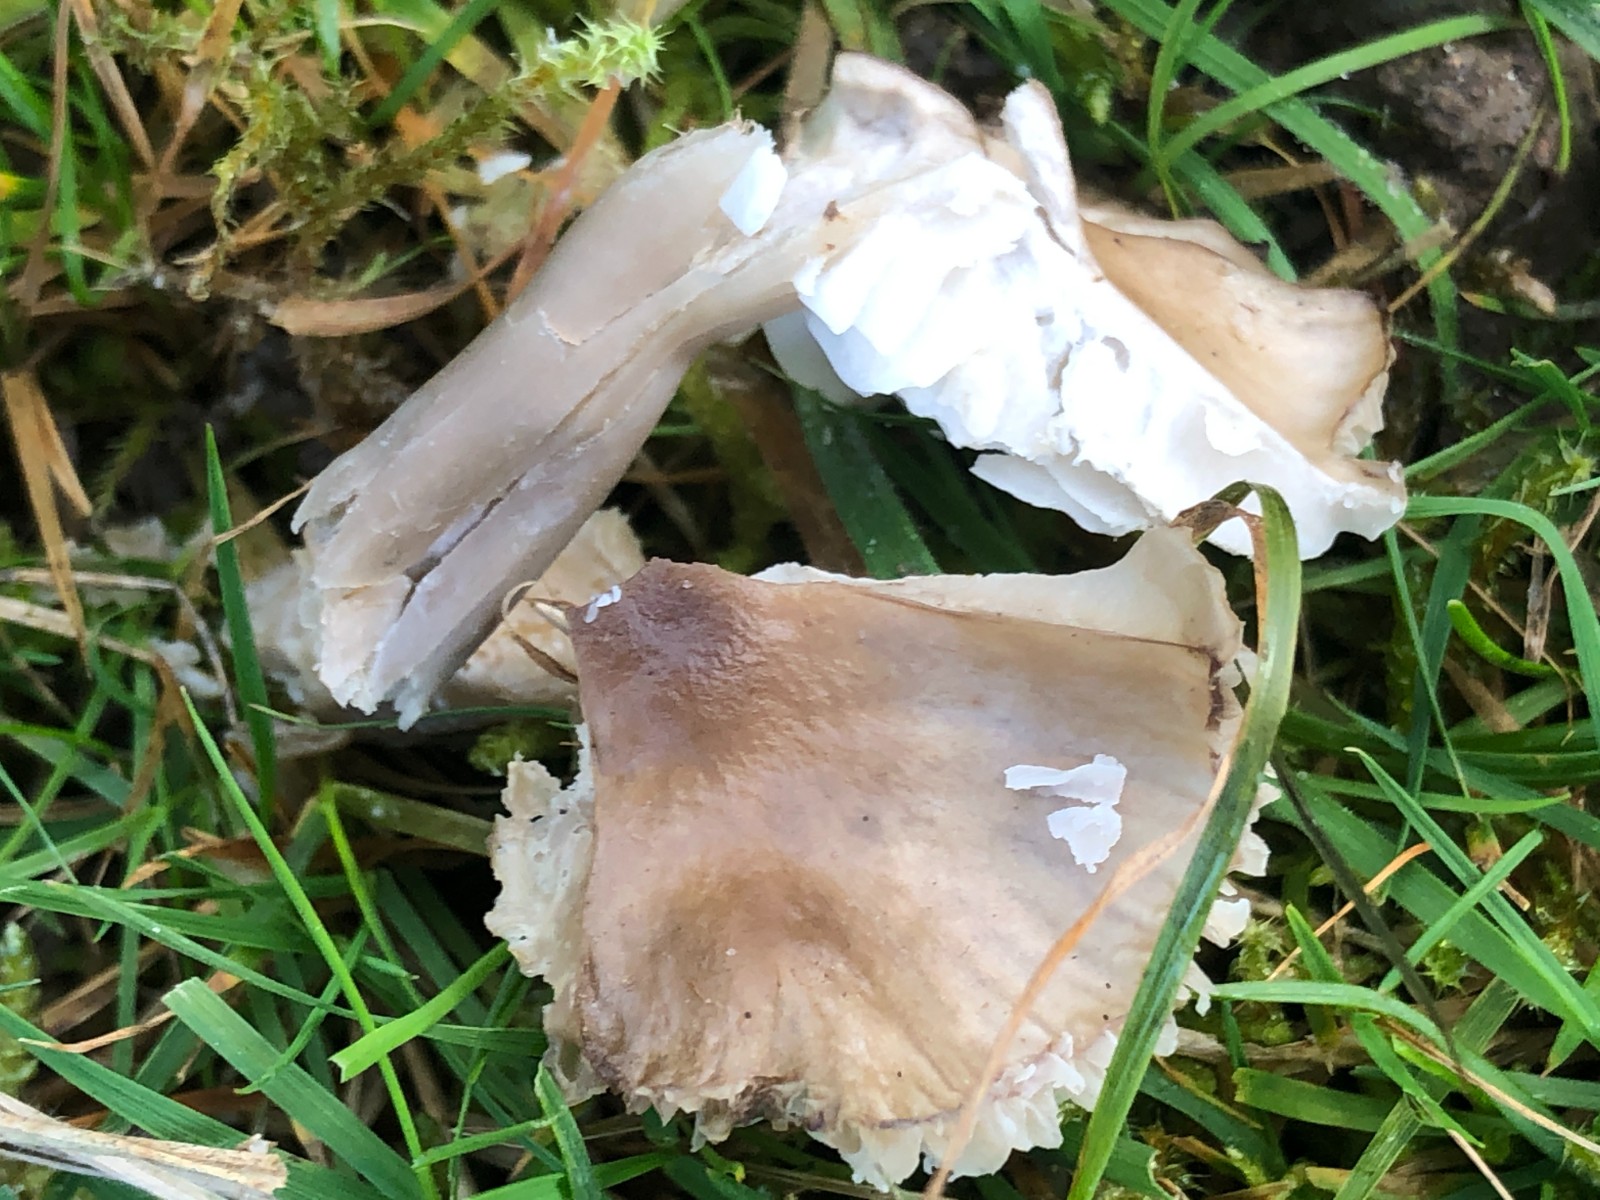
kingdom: Fungi
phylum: Basidiomycota
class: Agaricomycetes
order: Agaricales
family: Hygrophoraceae
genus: Gliophorus
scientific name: Gliophorus irrigatus
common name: slimet vokshat
